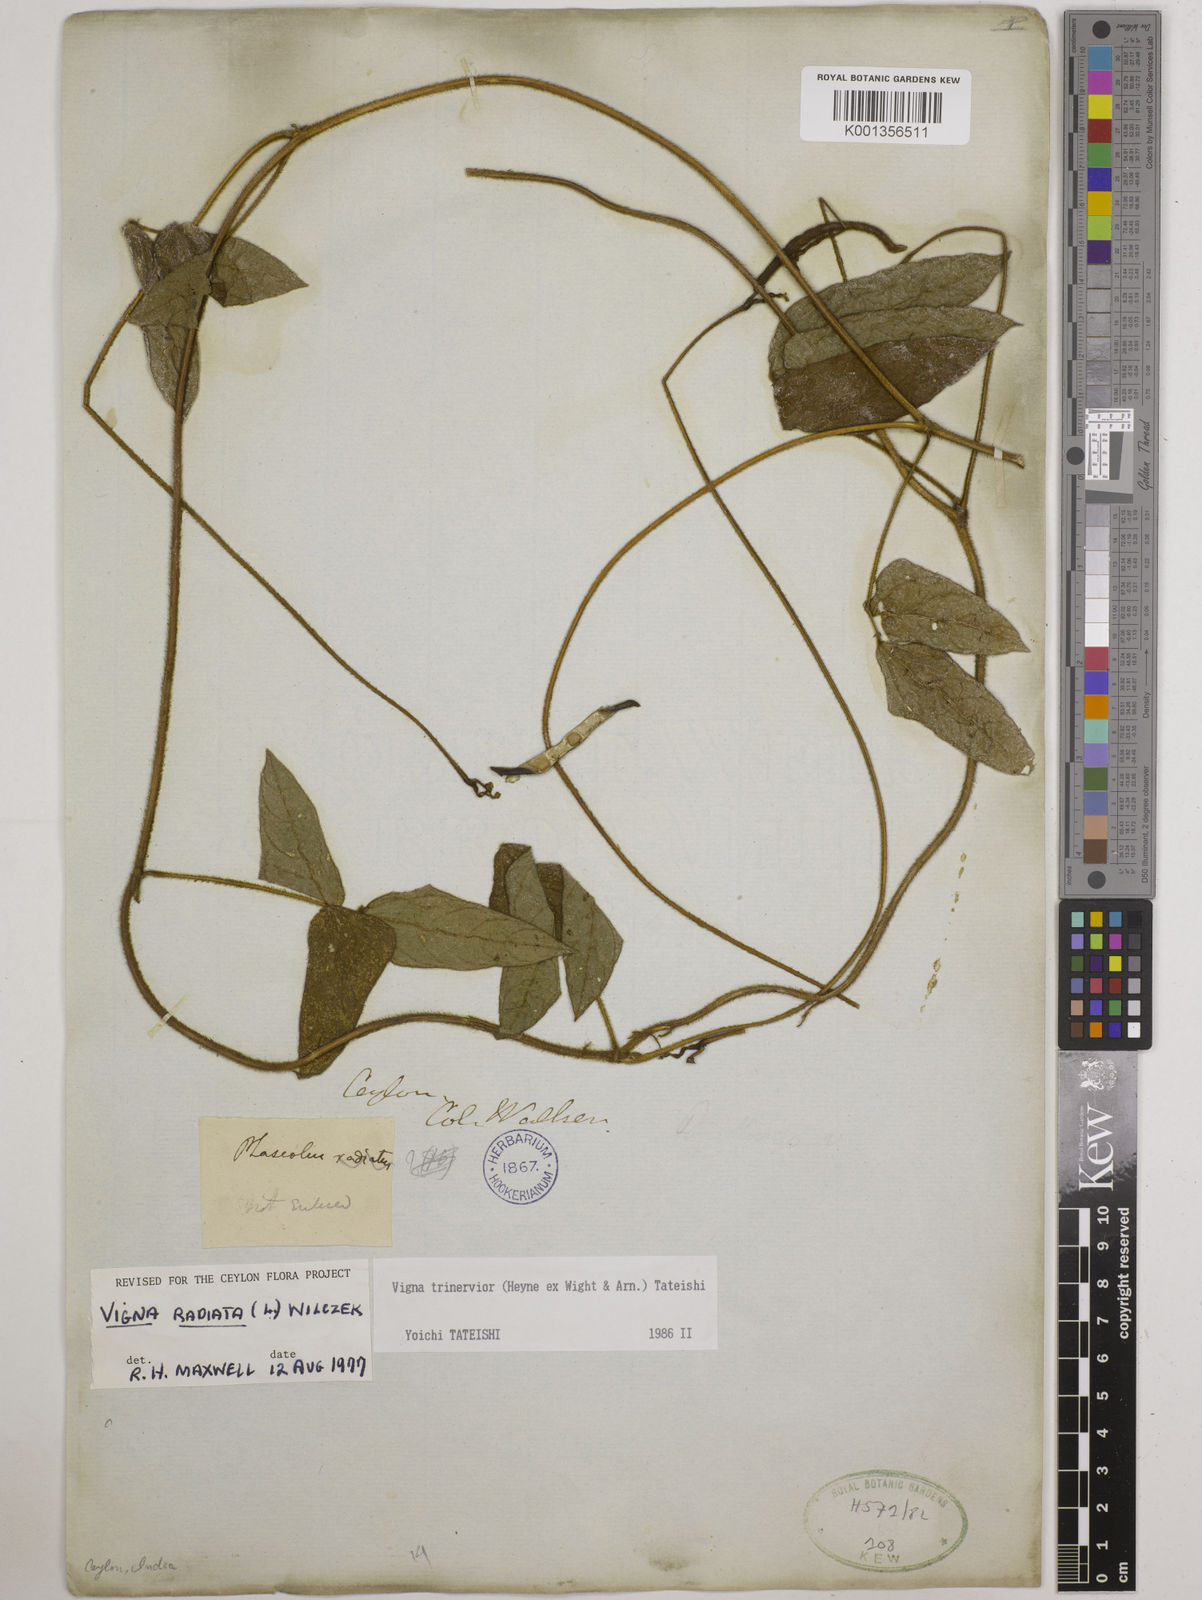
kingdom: Plantae
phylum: Tracheophyta
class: Magnoliopsida
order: Fabales
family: Fabaceae
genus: Vigna
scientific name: Vigna radiata
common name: Mung-bean
